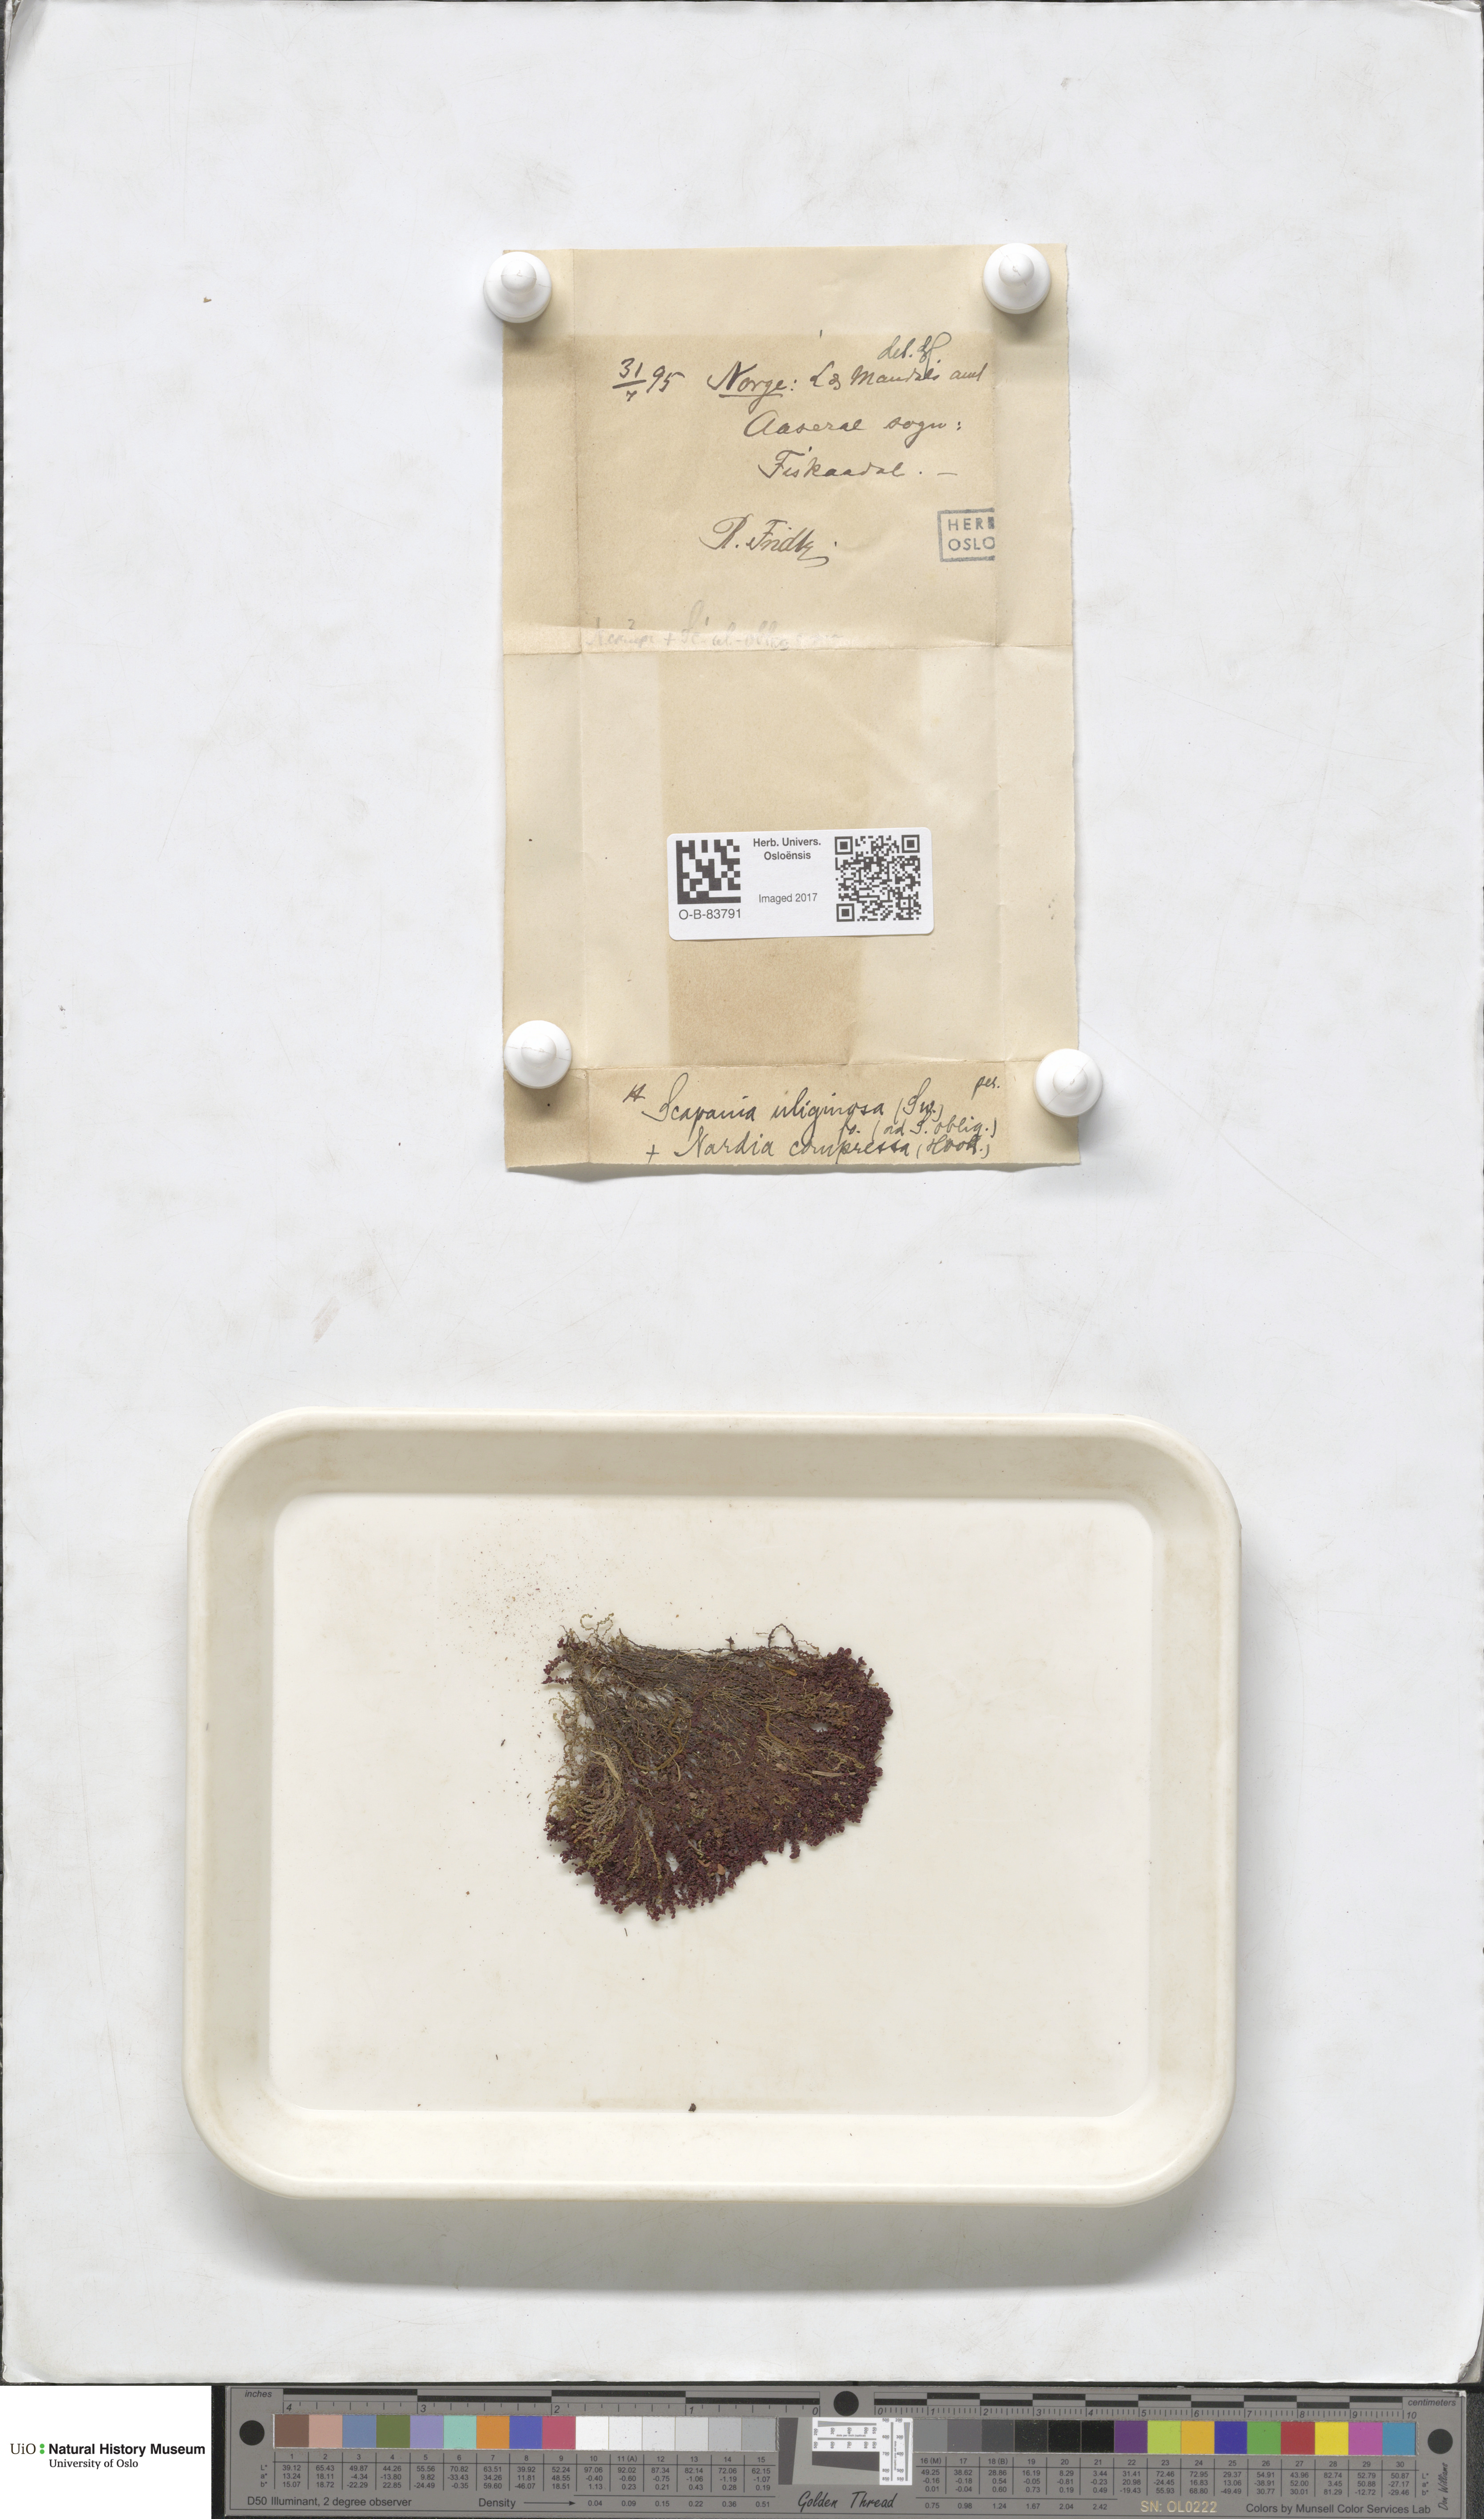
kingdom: Plantae
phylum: Marchantiophyta
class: Jungermanniopsida
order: Jungermanniales
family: Scapaniaceae
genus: Scapania
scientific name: Scapania uliginosa
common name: Marsh earwort
